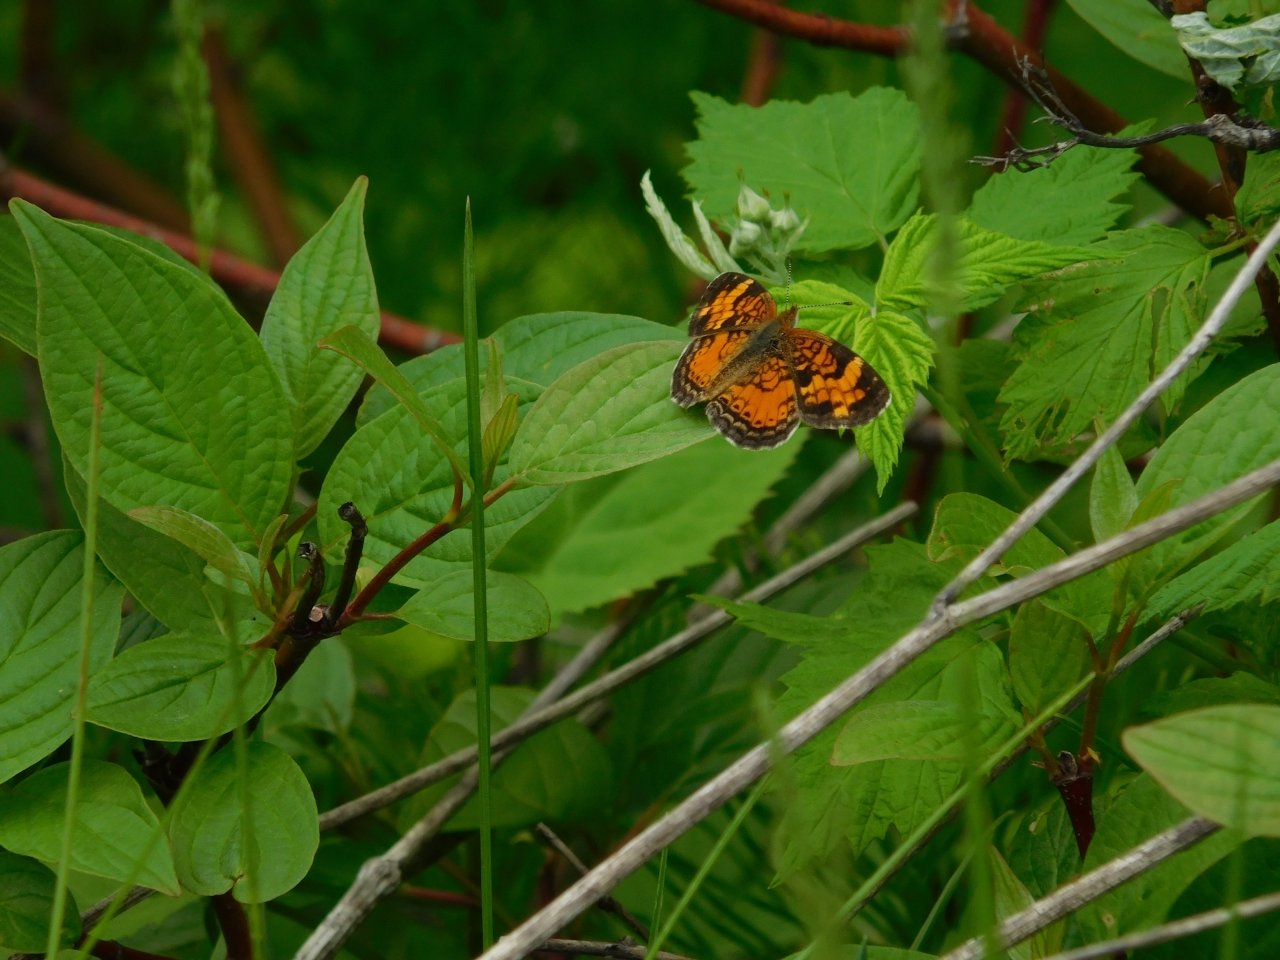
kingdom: Animalia
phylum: Arthropoda
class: Insecta
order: Lepidoptera
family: Nymphalidae
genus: Phyciodes
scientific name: Phyciodes tharos
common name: Pearl Crescent
